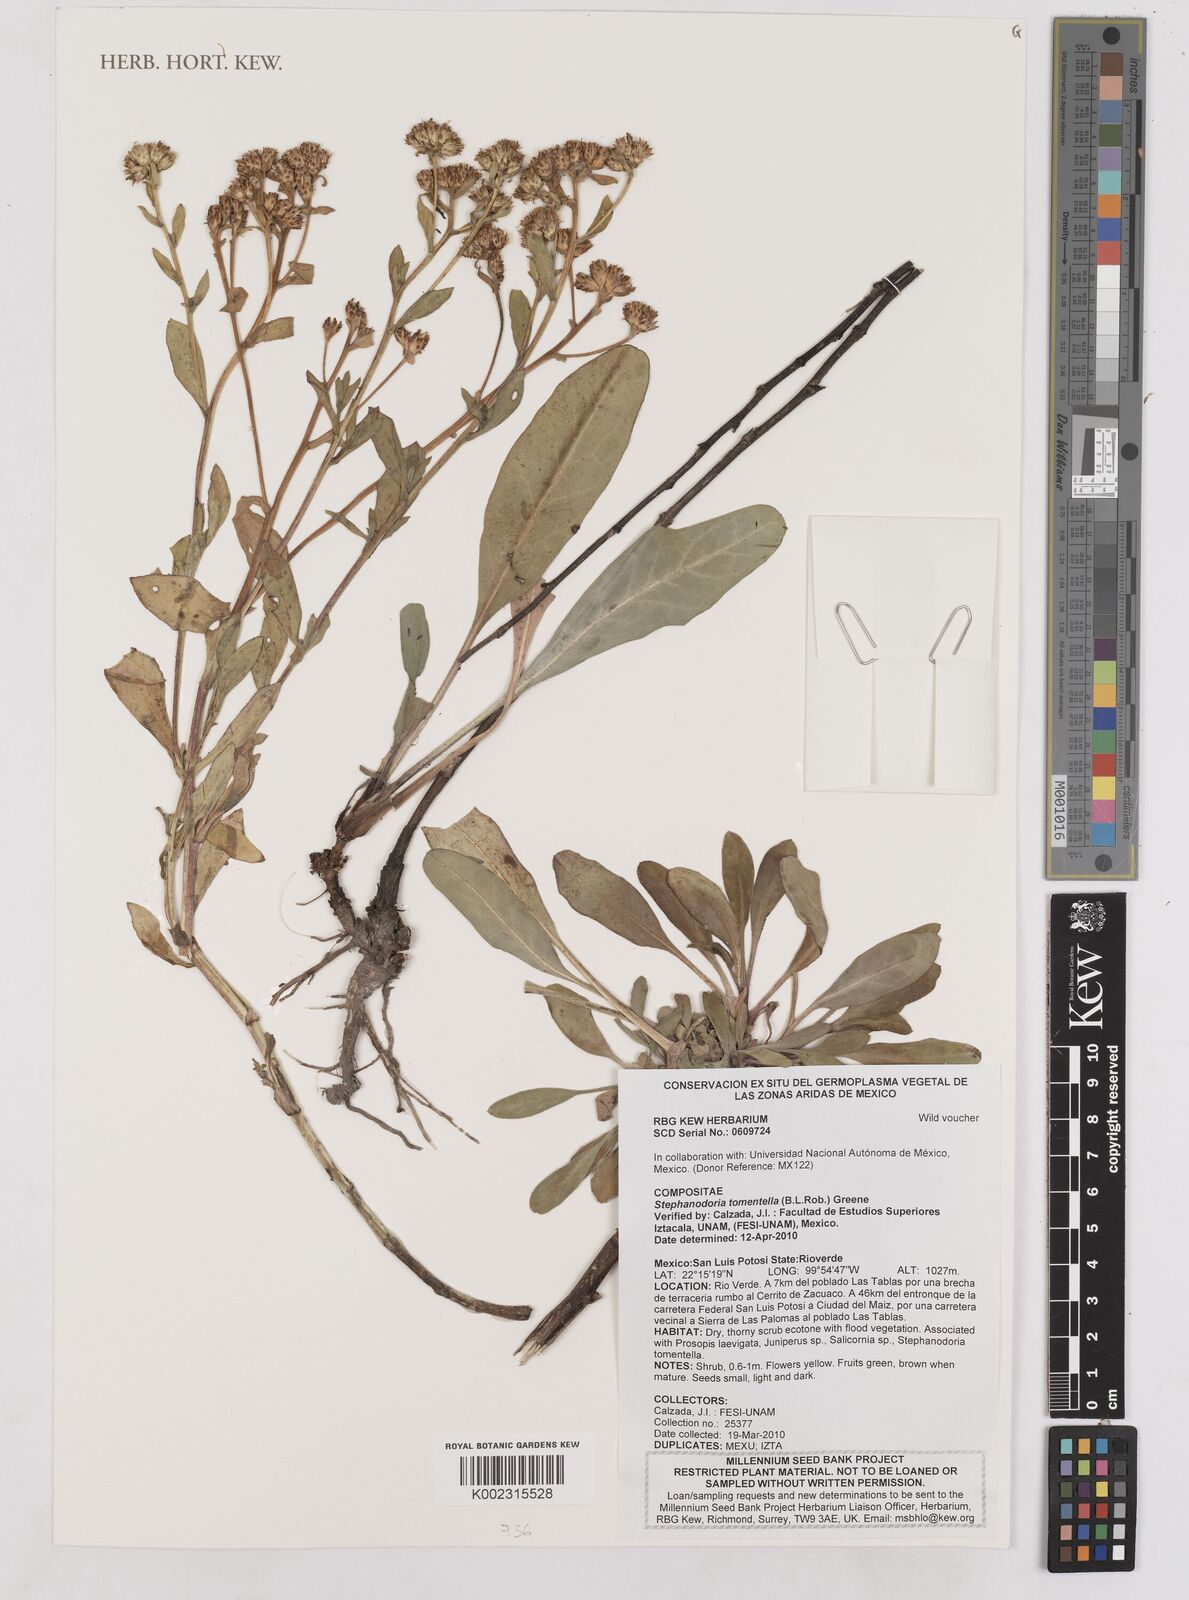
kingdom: Plantae
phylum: Tracheophyta
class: Magnoliopsida
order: Asterales
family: Asteraceae
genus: Stephanodoria
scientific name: Stephanodoria tomentella
